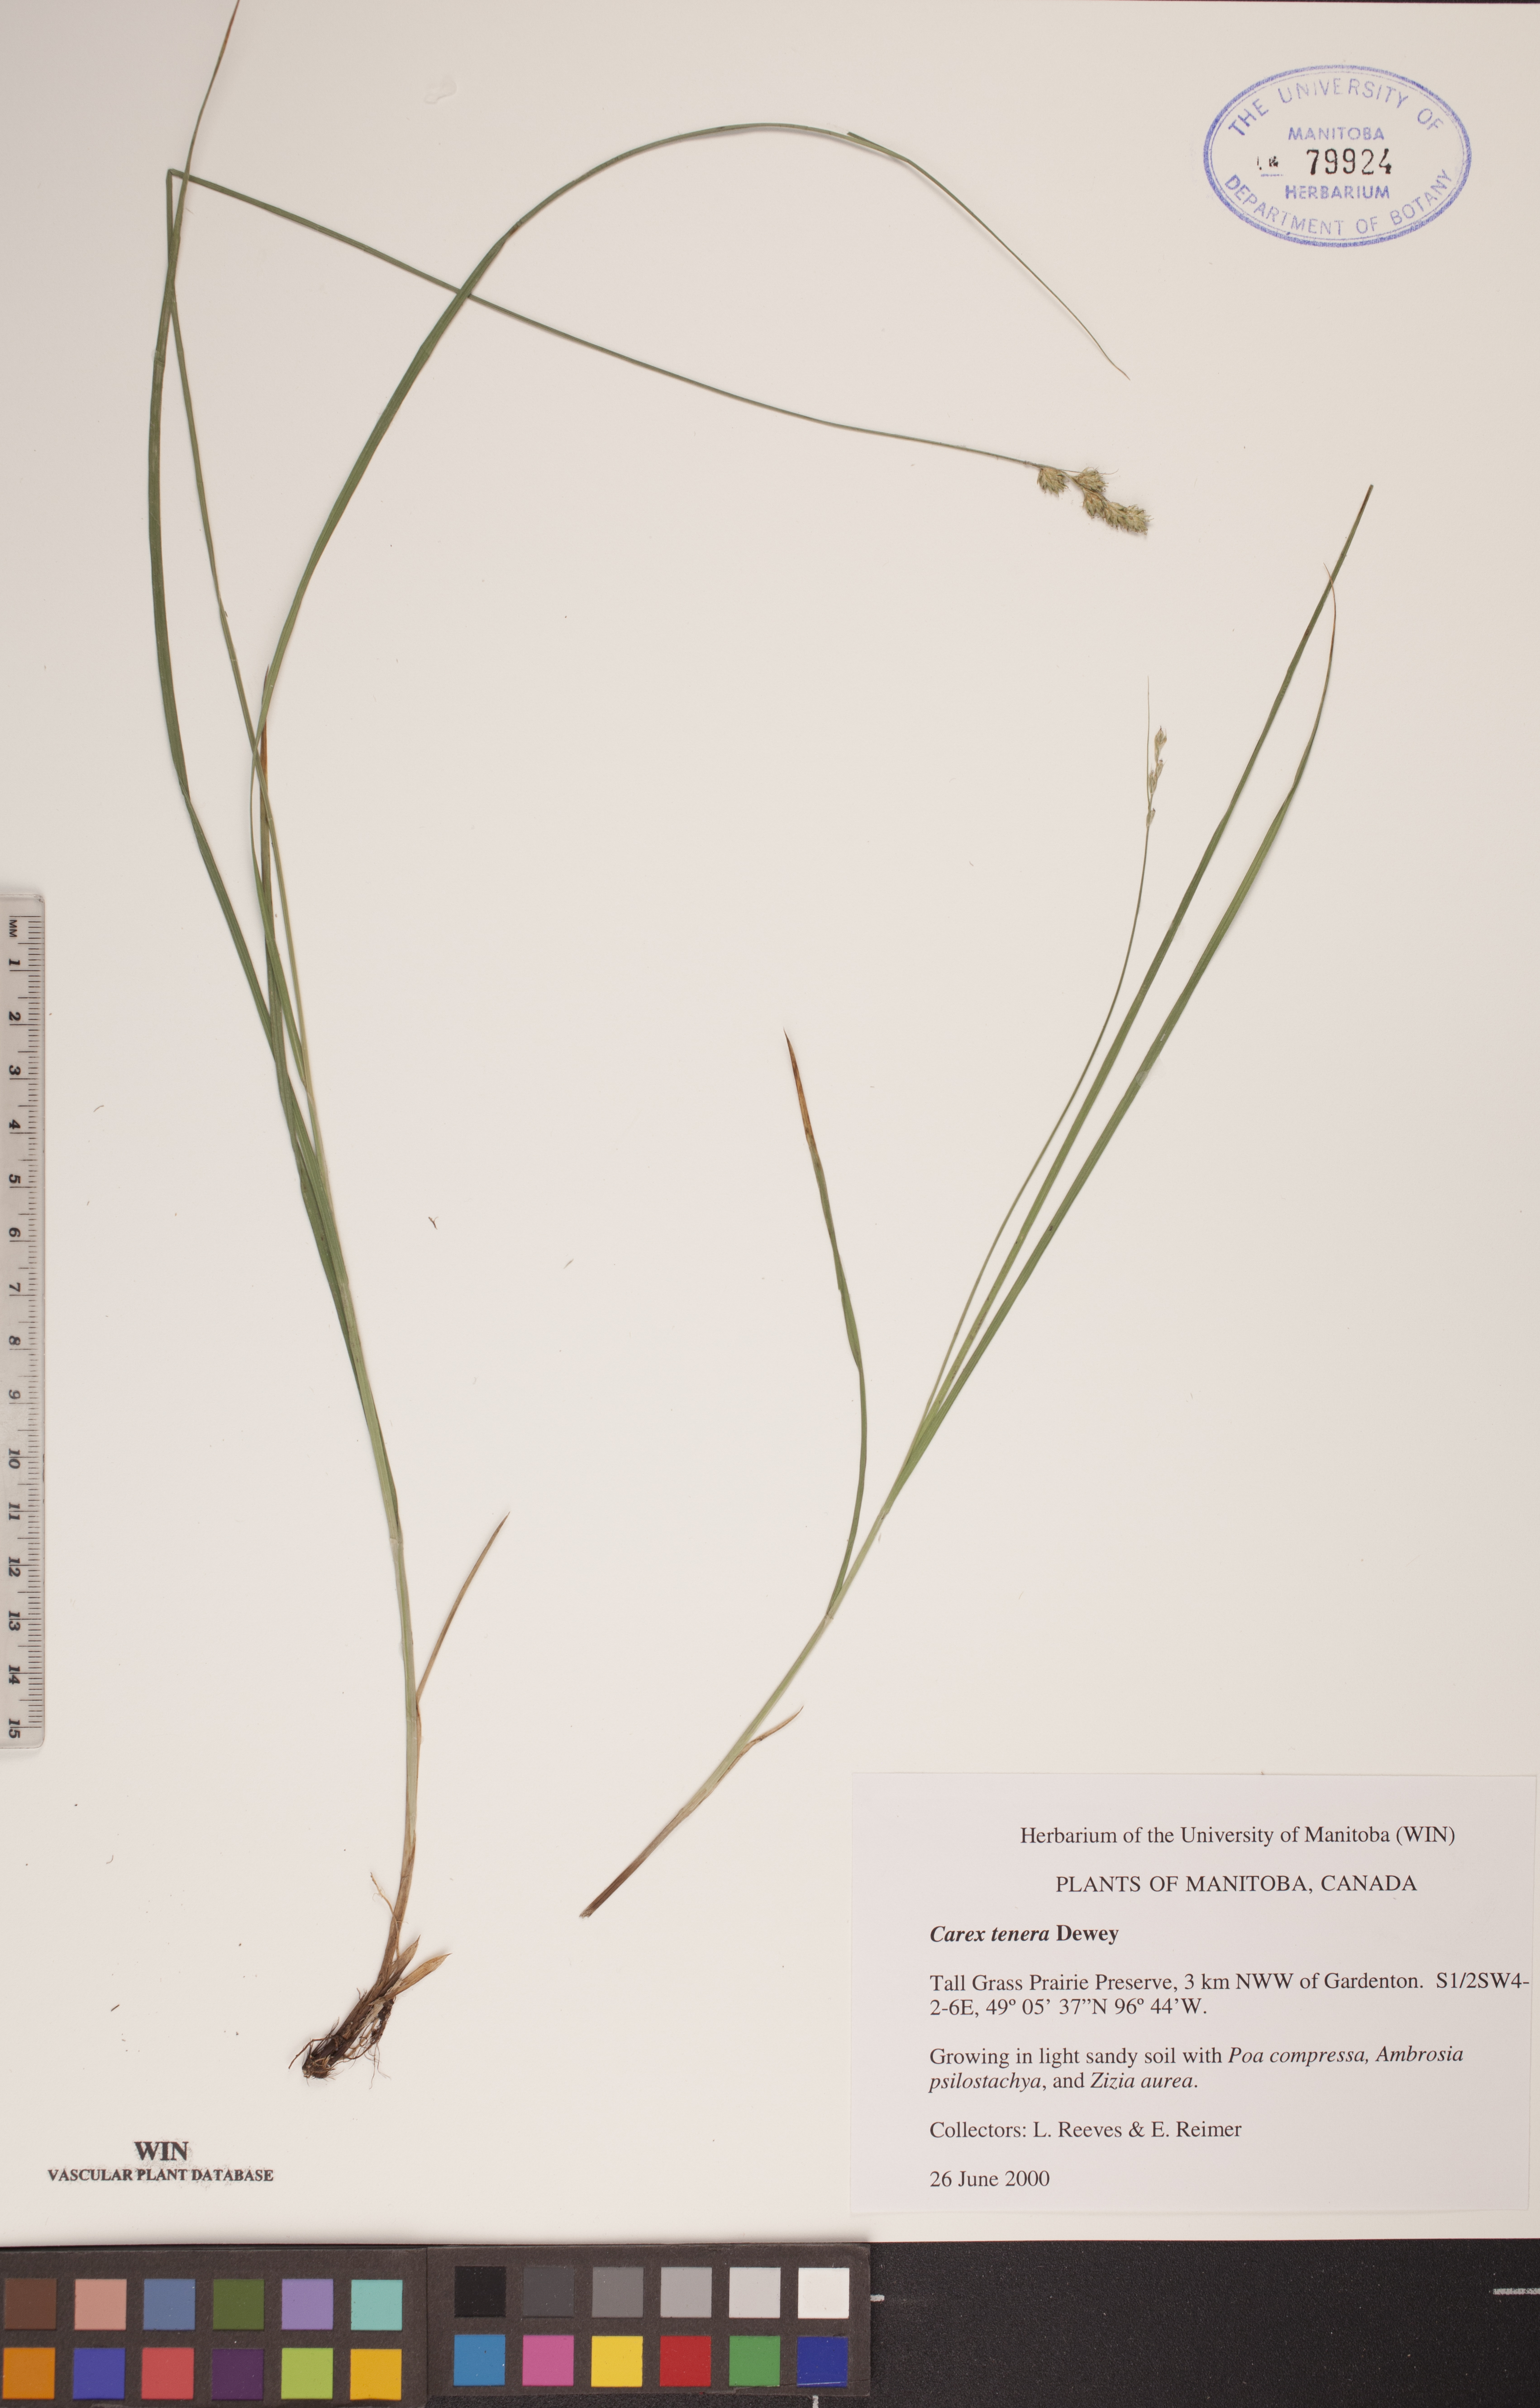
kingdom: Plantae
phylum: Tracheophyta
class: Liliopsida
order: Poales
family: Cyperaceae
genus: Carex
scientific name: Carex tenera
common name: Broad-fruited sedge
